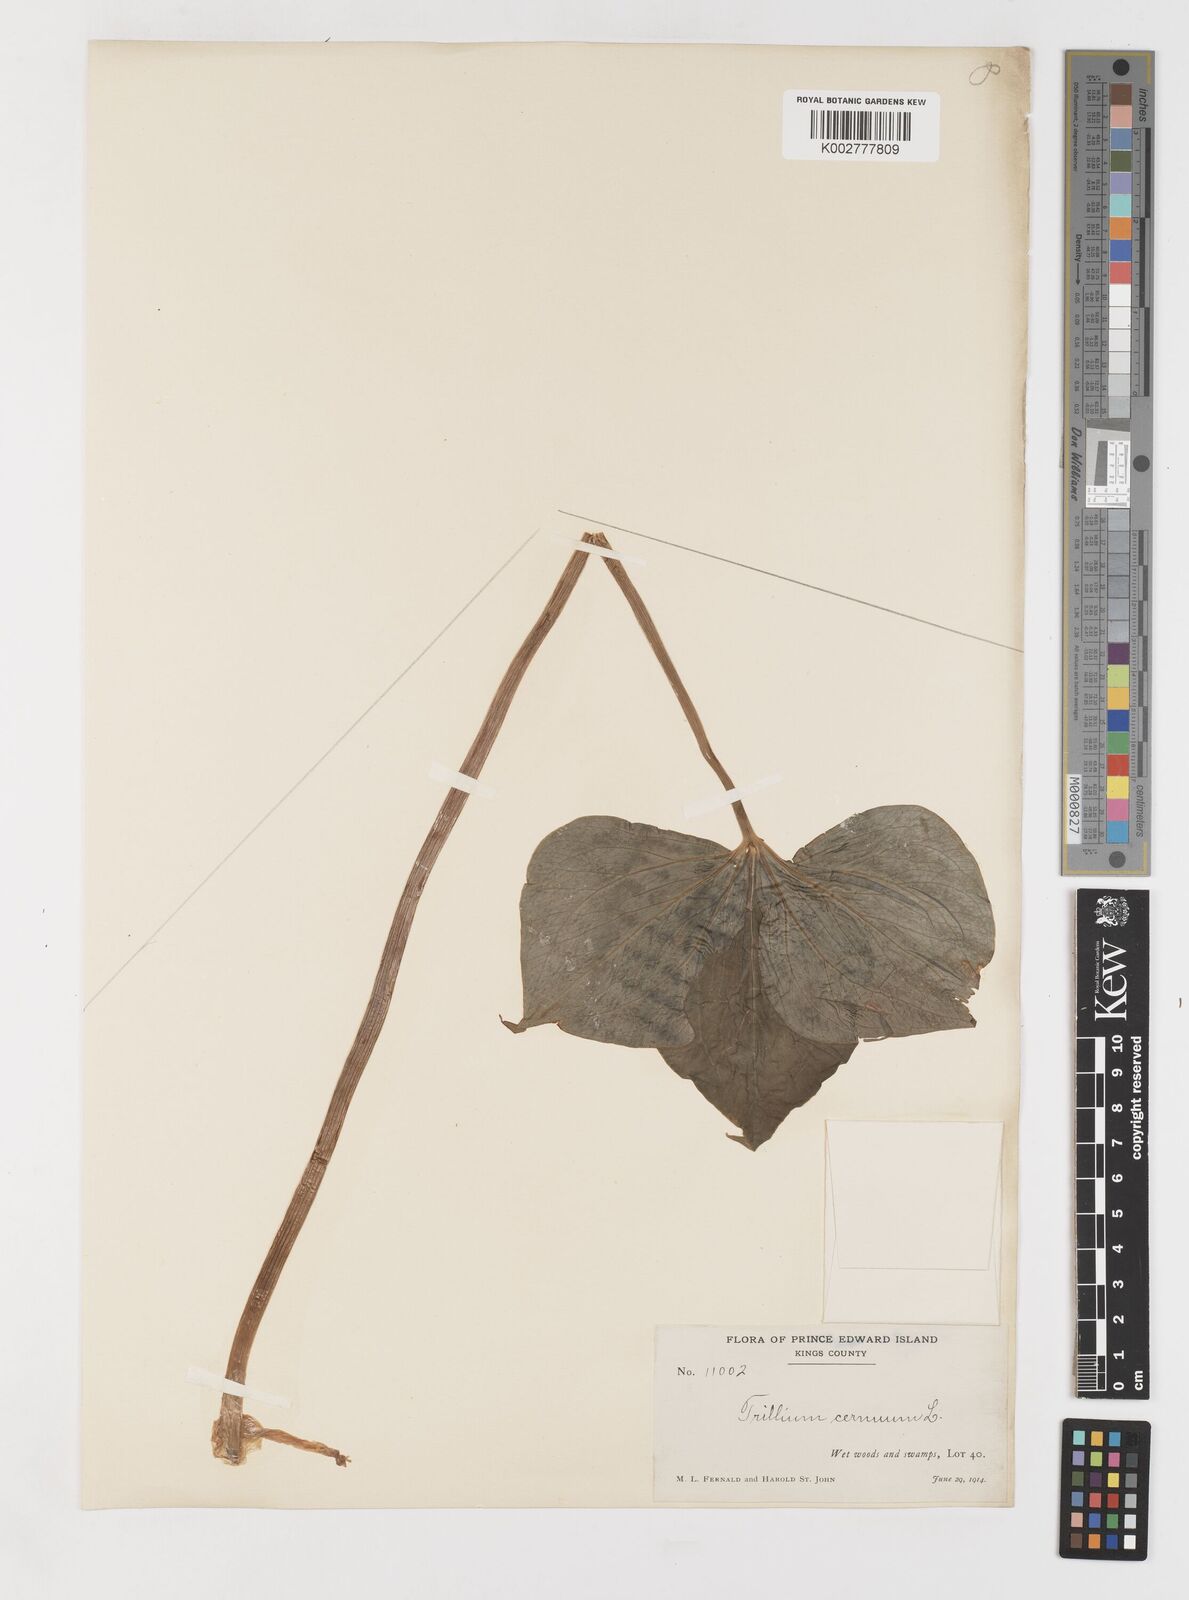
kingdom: Plantae
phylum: Tracheophyta
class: Liliopsida
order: Liliales
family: Melanthiaceae
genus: Trillium
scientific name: Trillium cernuum
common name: Nodding trillium
